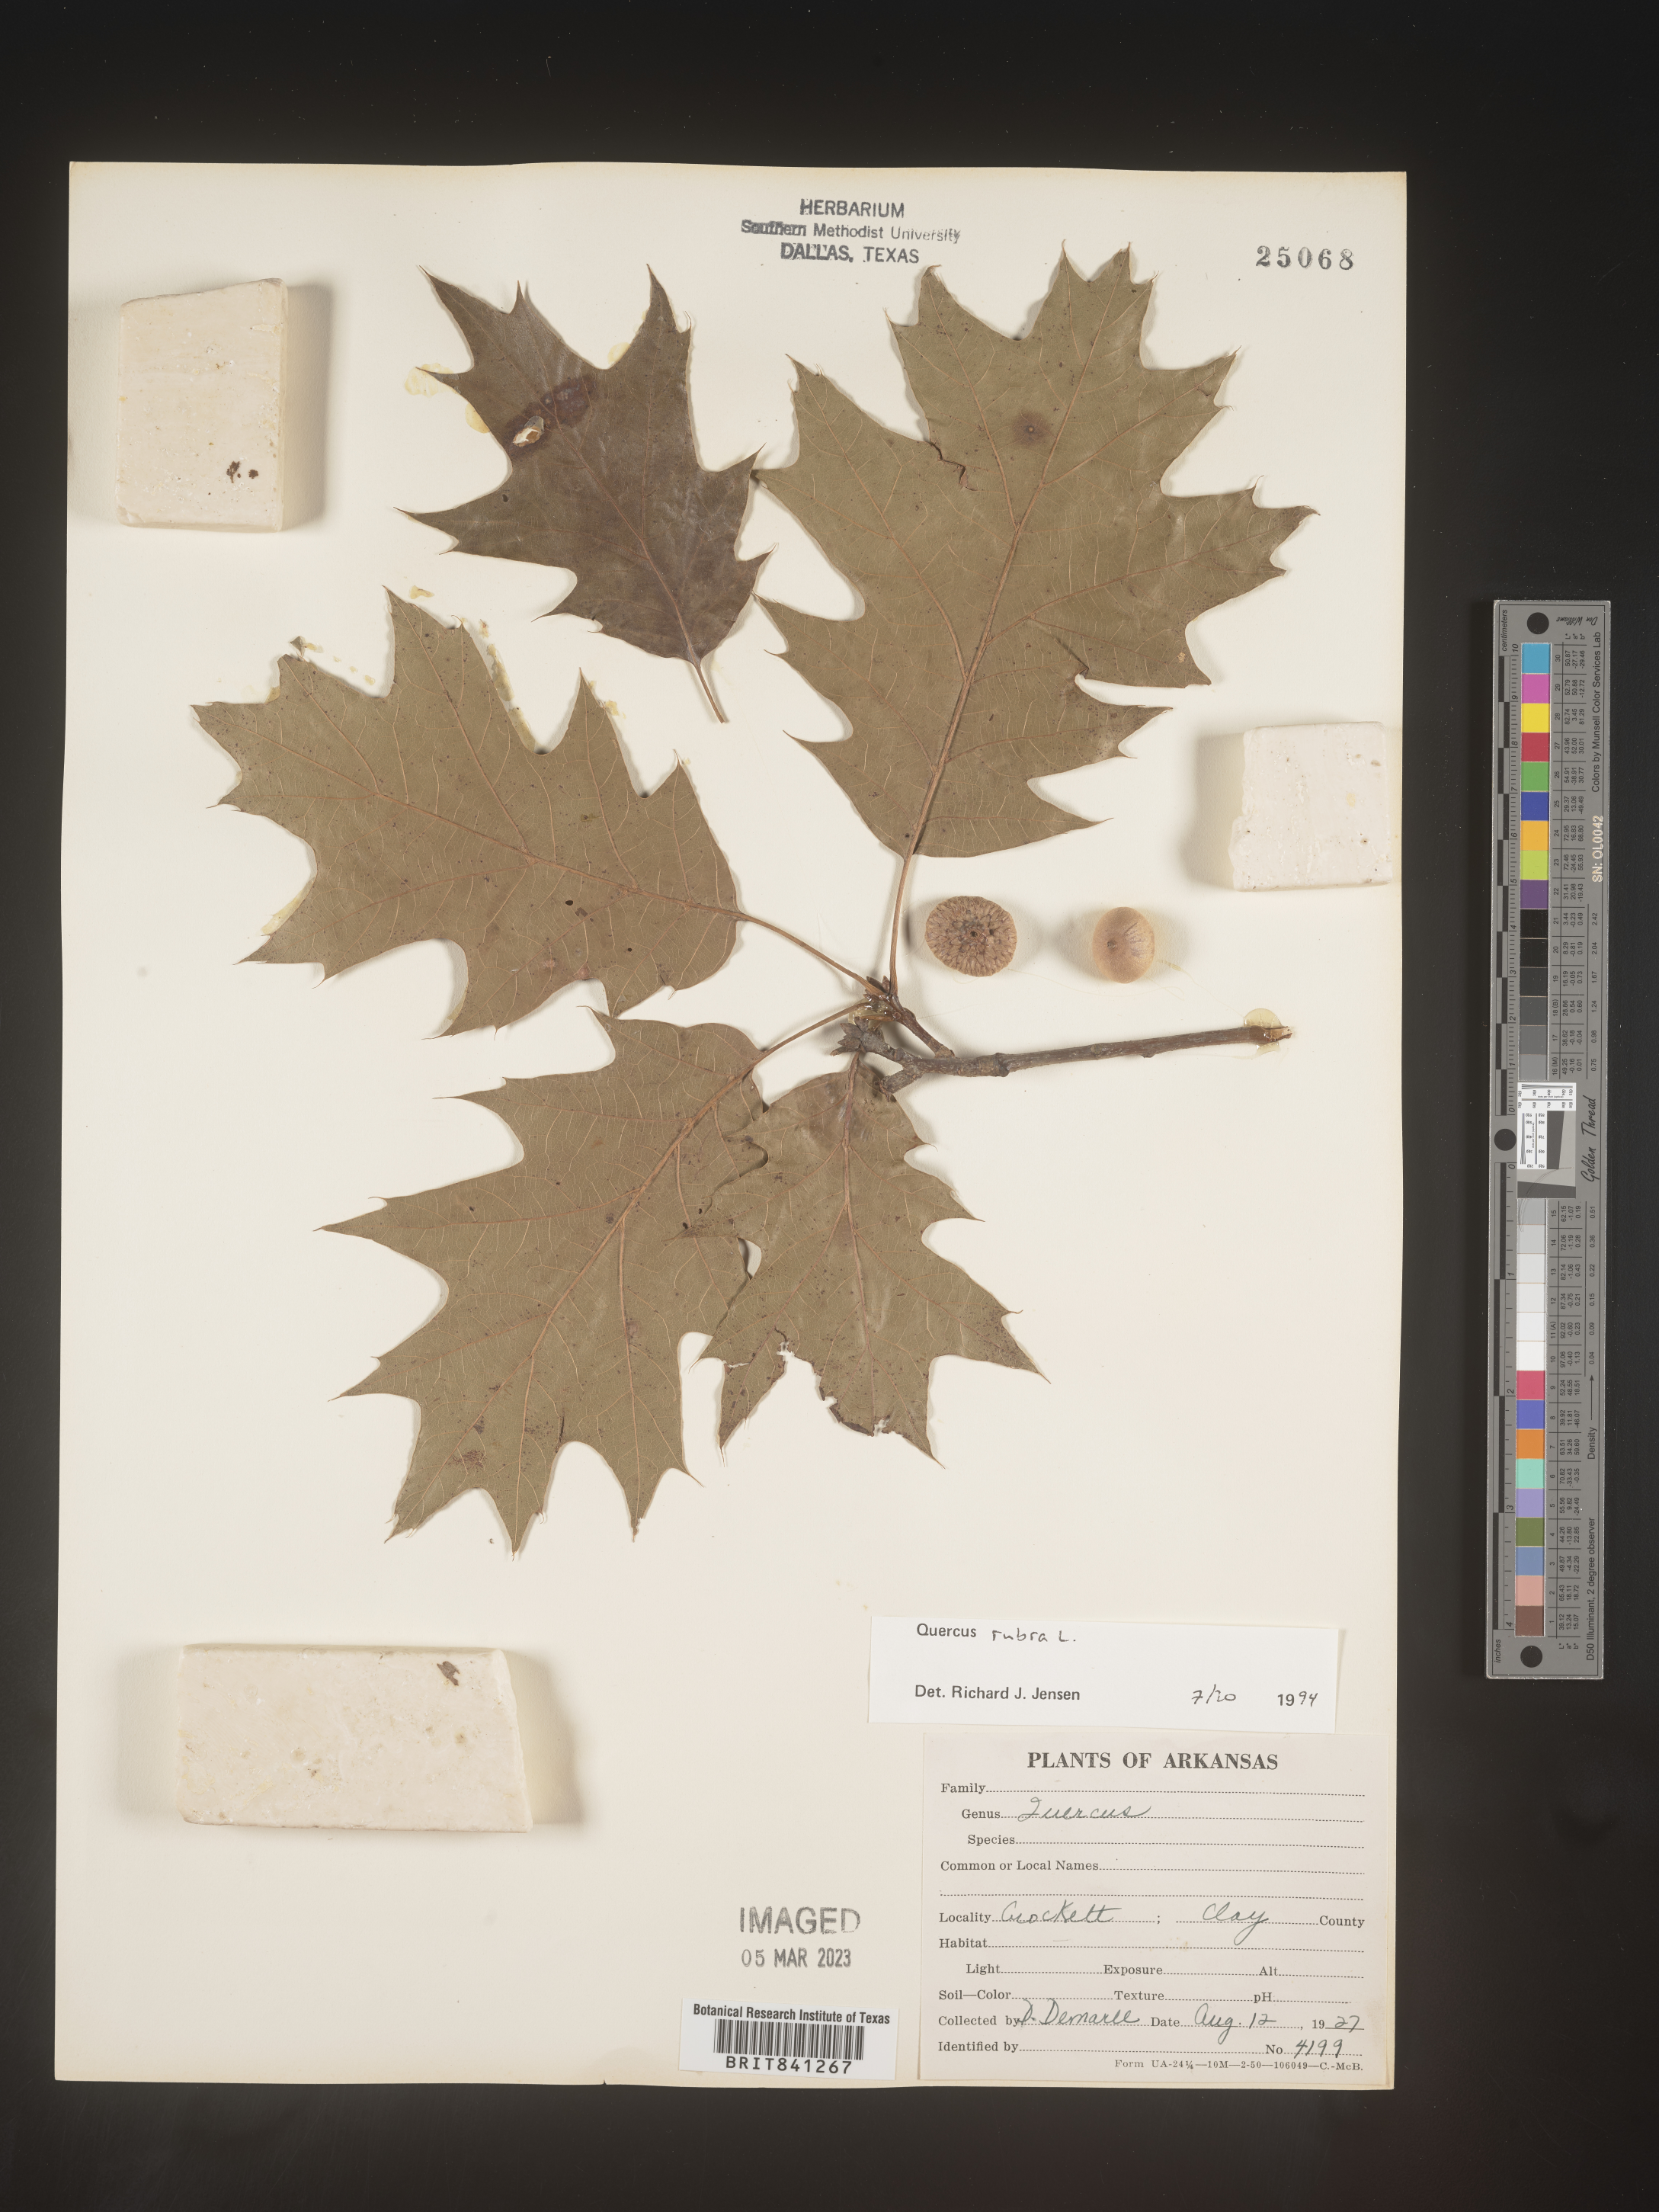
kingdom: Plantae
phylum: Tracheophyta
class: Magnoliopsida
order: Fagales
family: Fagaceae
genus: Quercus
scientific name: Quercus rubra
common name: Red oak
